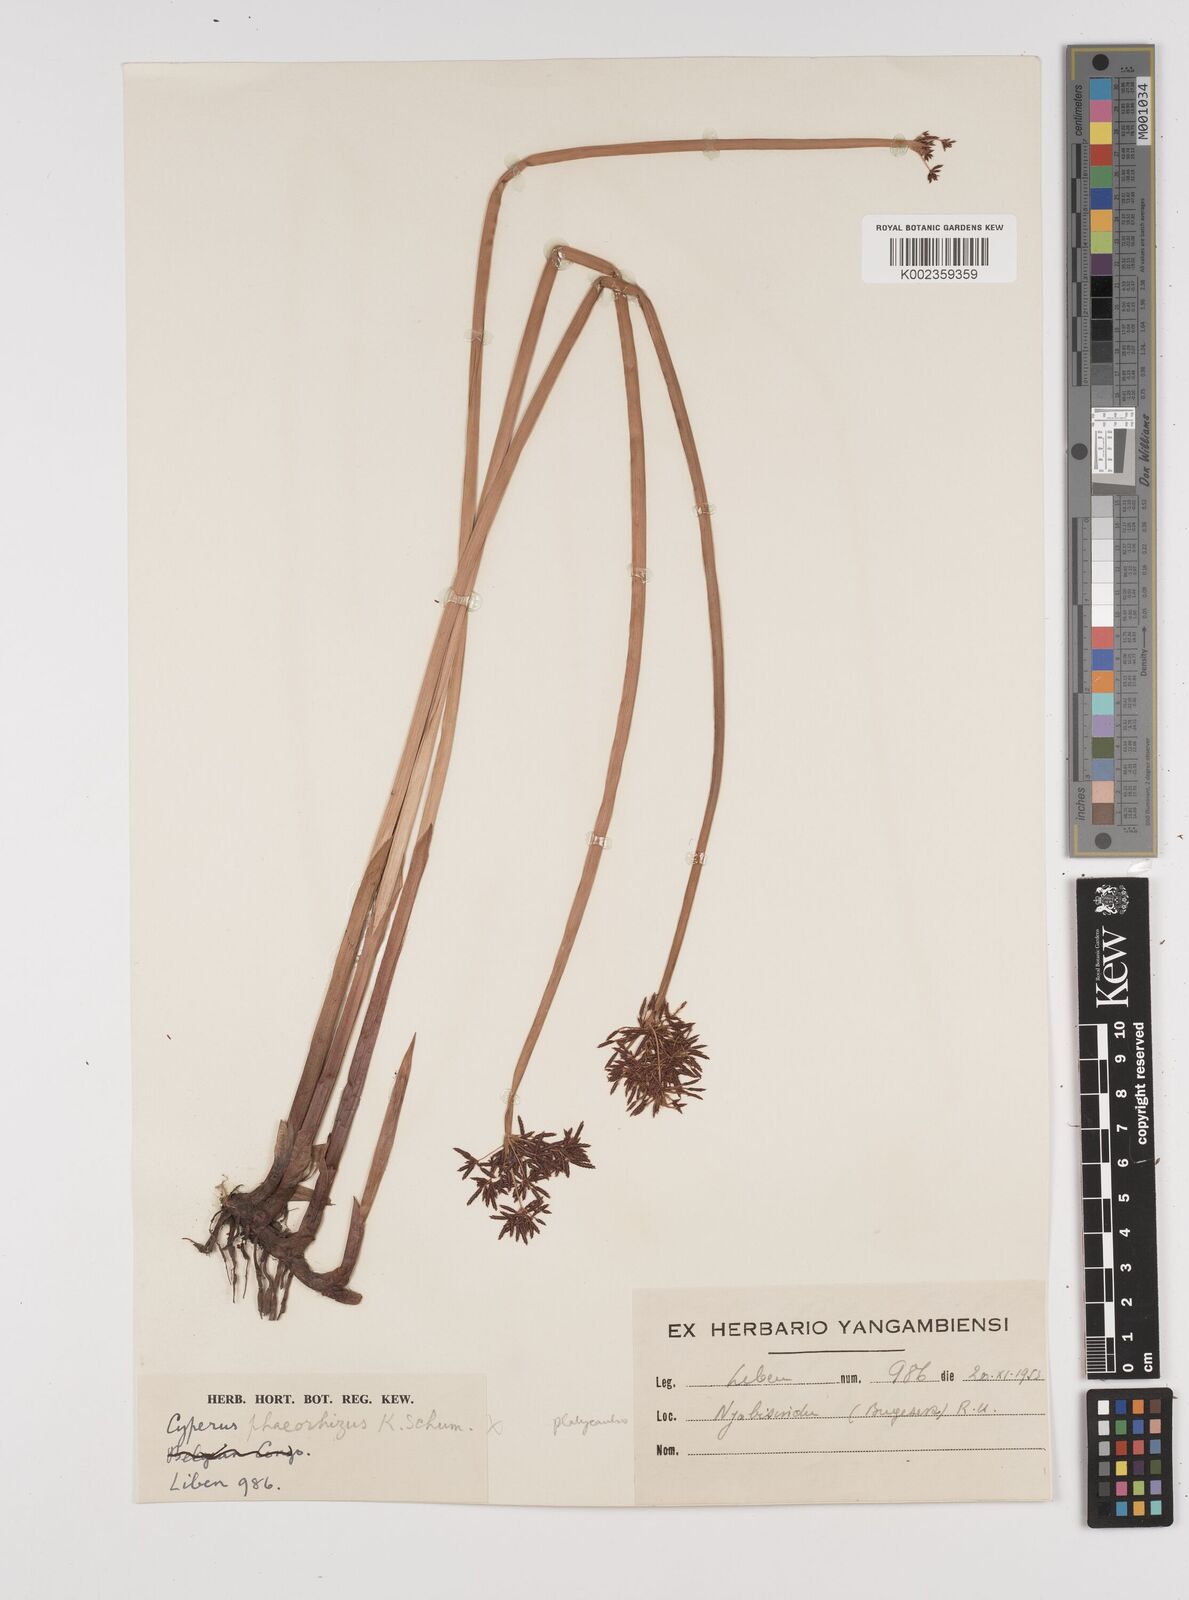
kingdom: Plantae
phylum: Tracheophyta
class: Liliopsida
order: Poales
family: Cyperaceae
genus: Cyperus
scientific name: Cyperus platycaulis
